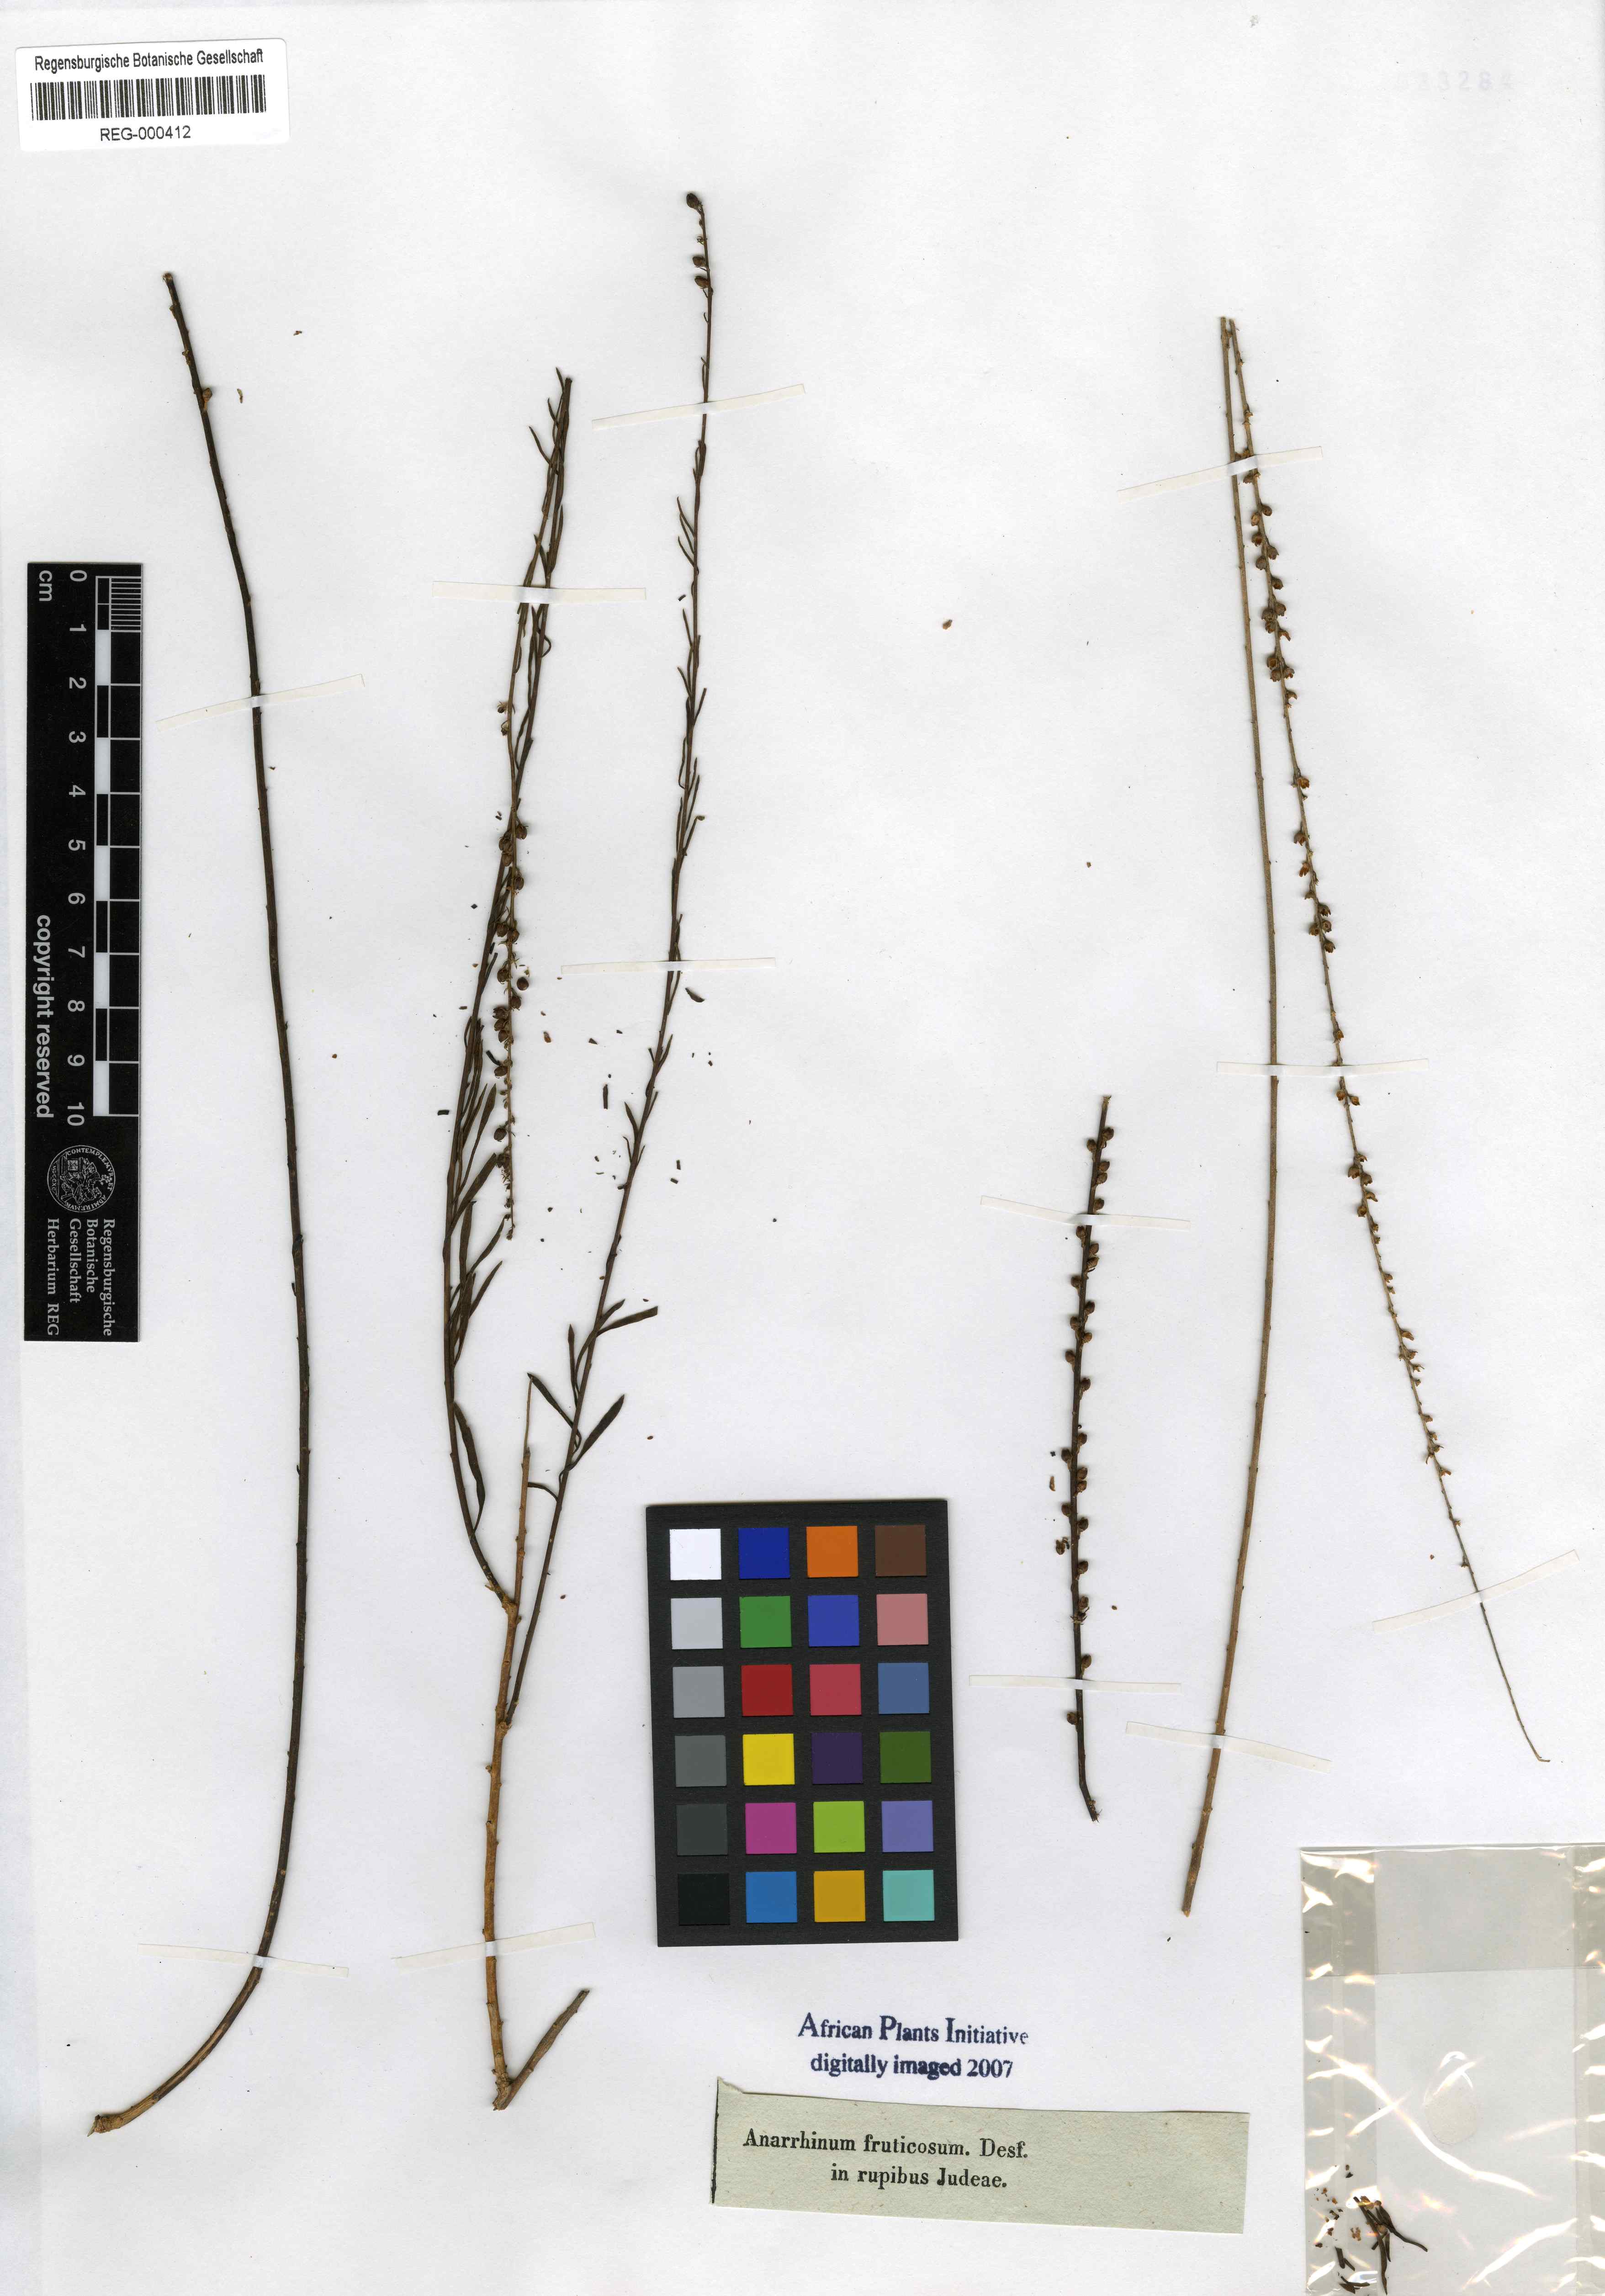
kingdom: Plantae
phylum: Tracheophyta
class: Magnoliopsida
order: Lamiales
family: Plantaginaceae
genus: Anarrhinum
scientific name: Anarrhinum fruticosum
